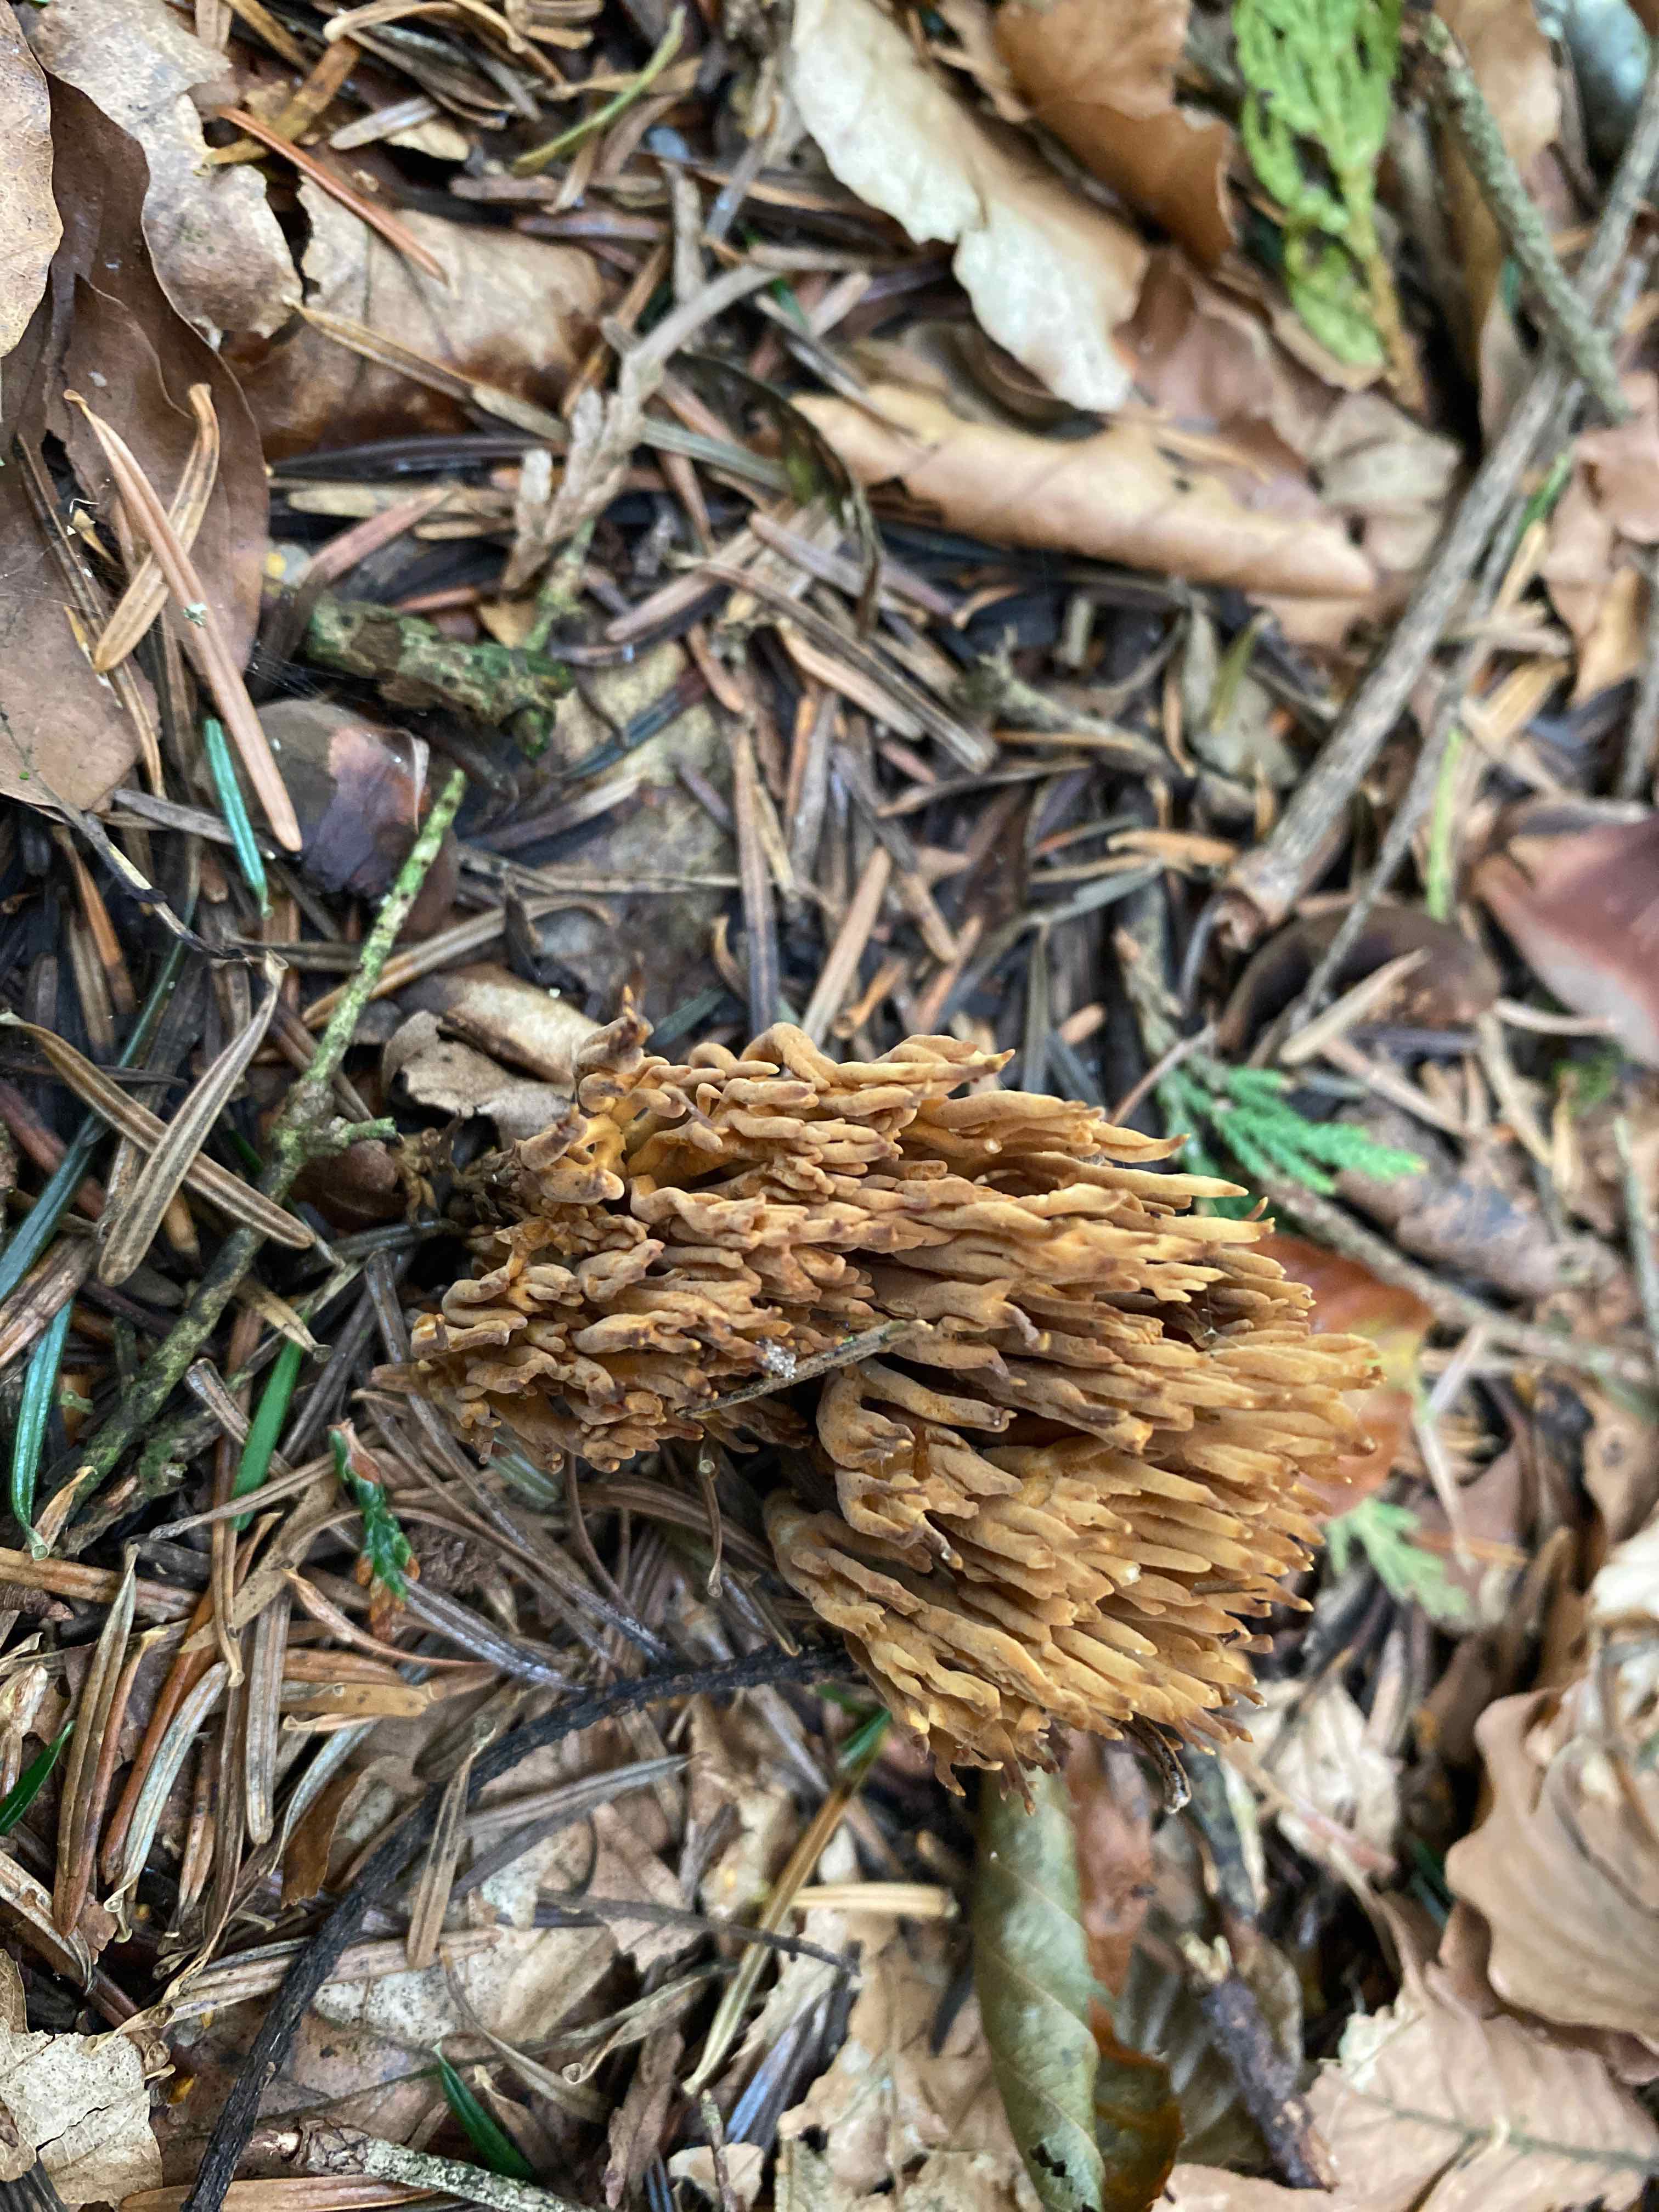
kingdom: Fungi
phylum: Basidiomycota
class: Agaricomycetes
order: Gomphales
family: Gomphaceae
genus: Phaeoclavulina
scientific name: Phaeoclavulina eumorpha
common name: gran-koralsvamp
